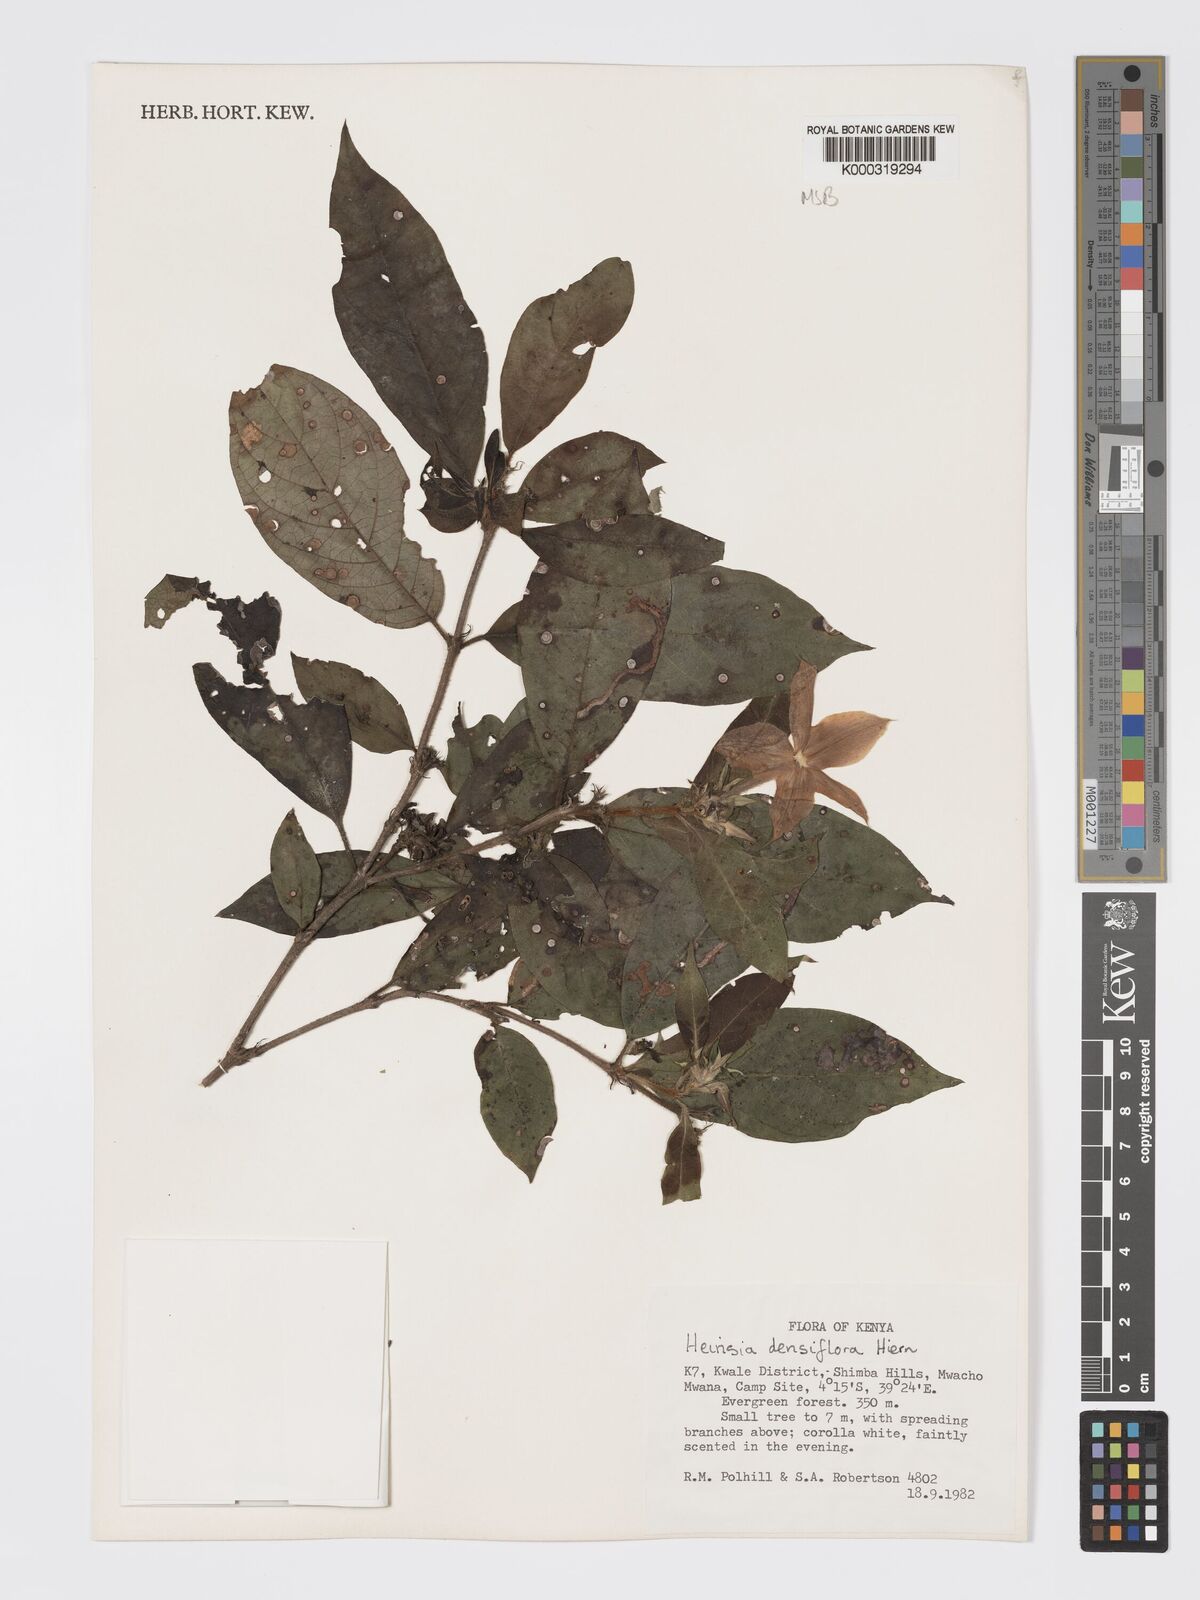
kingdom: Plantae
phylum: Tracheophyta
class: Magnoliopsida
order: Gentianales
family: Rubiaceae
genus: Heinsia
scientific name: Heinsia zanzibarica
